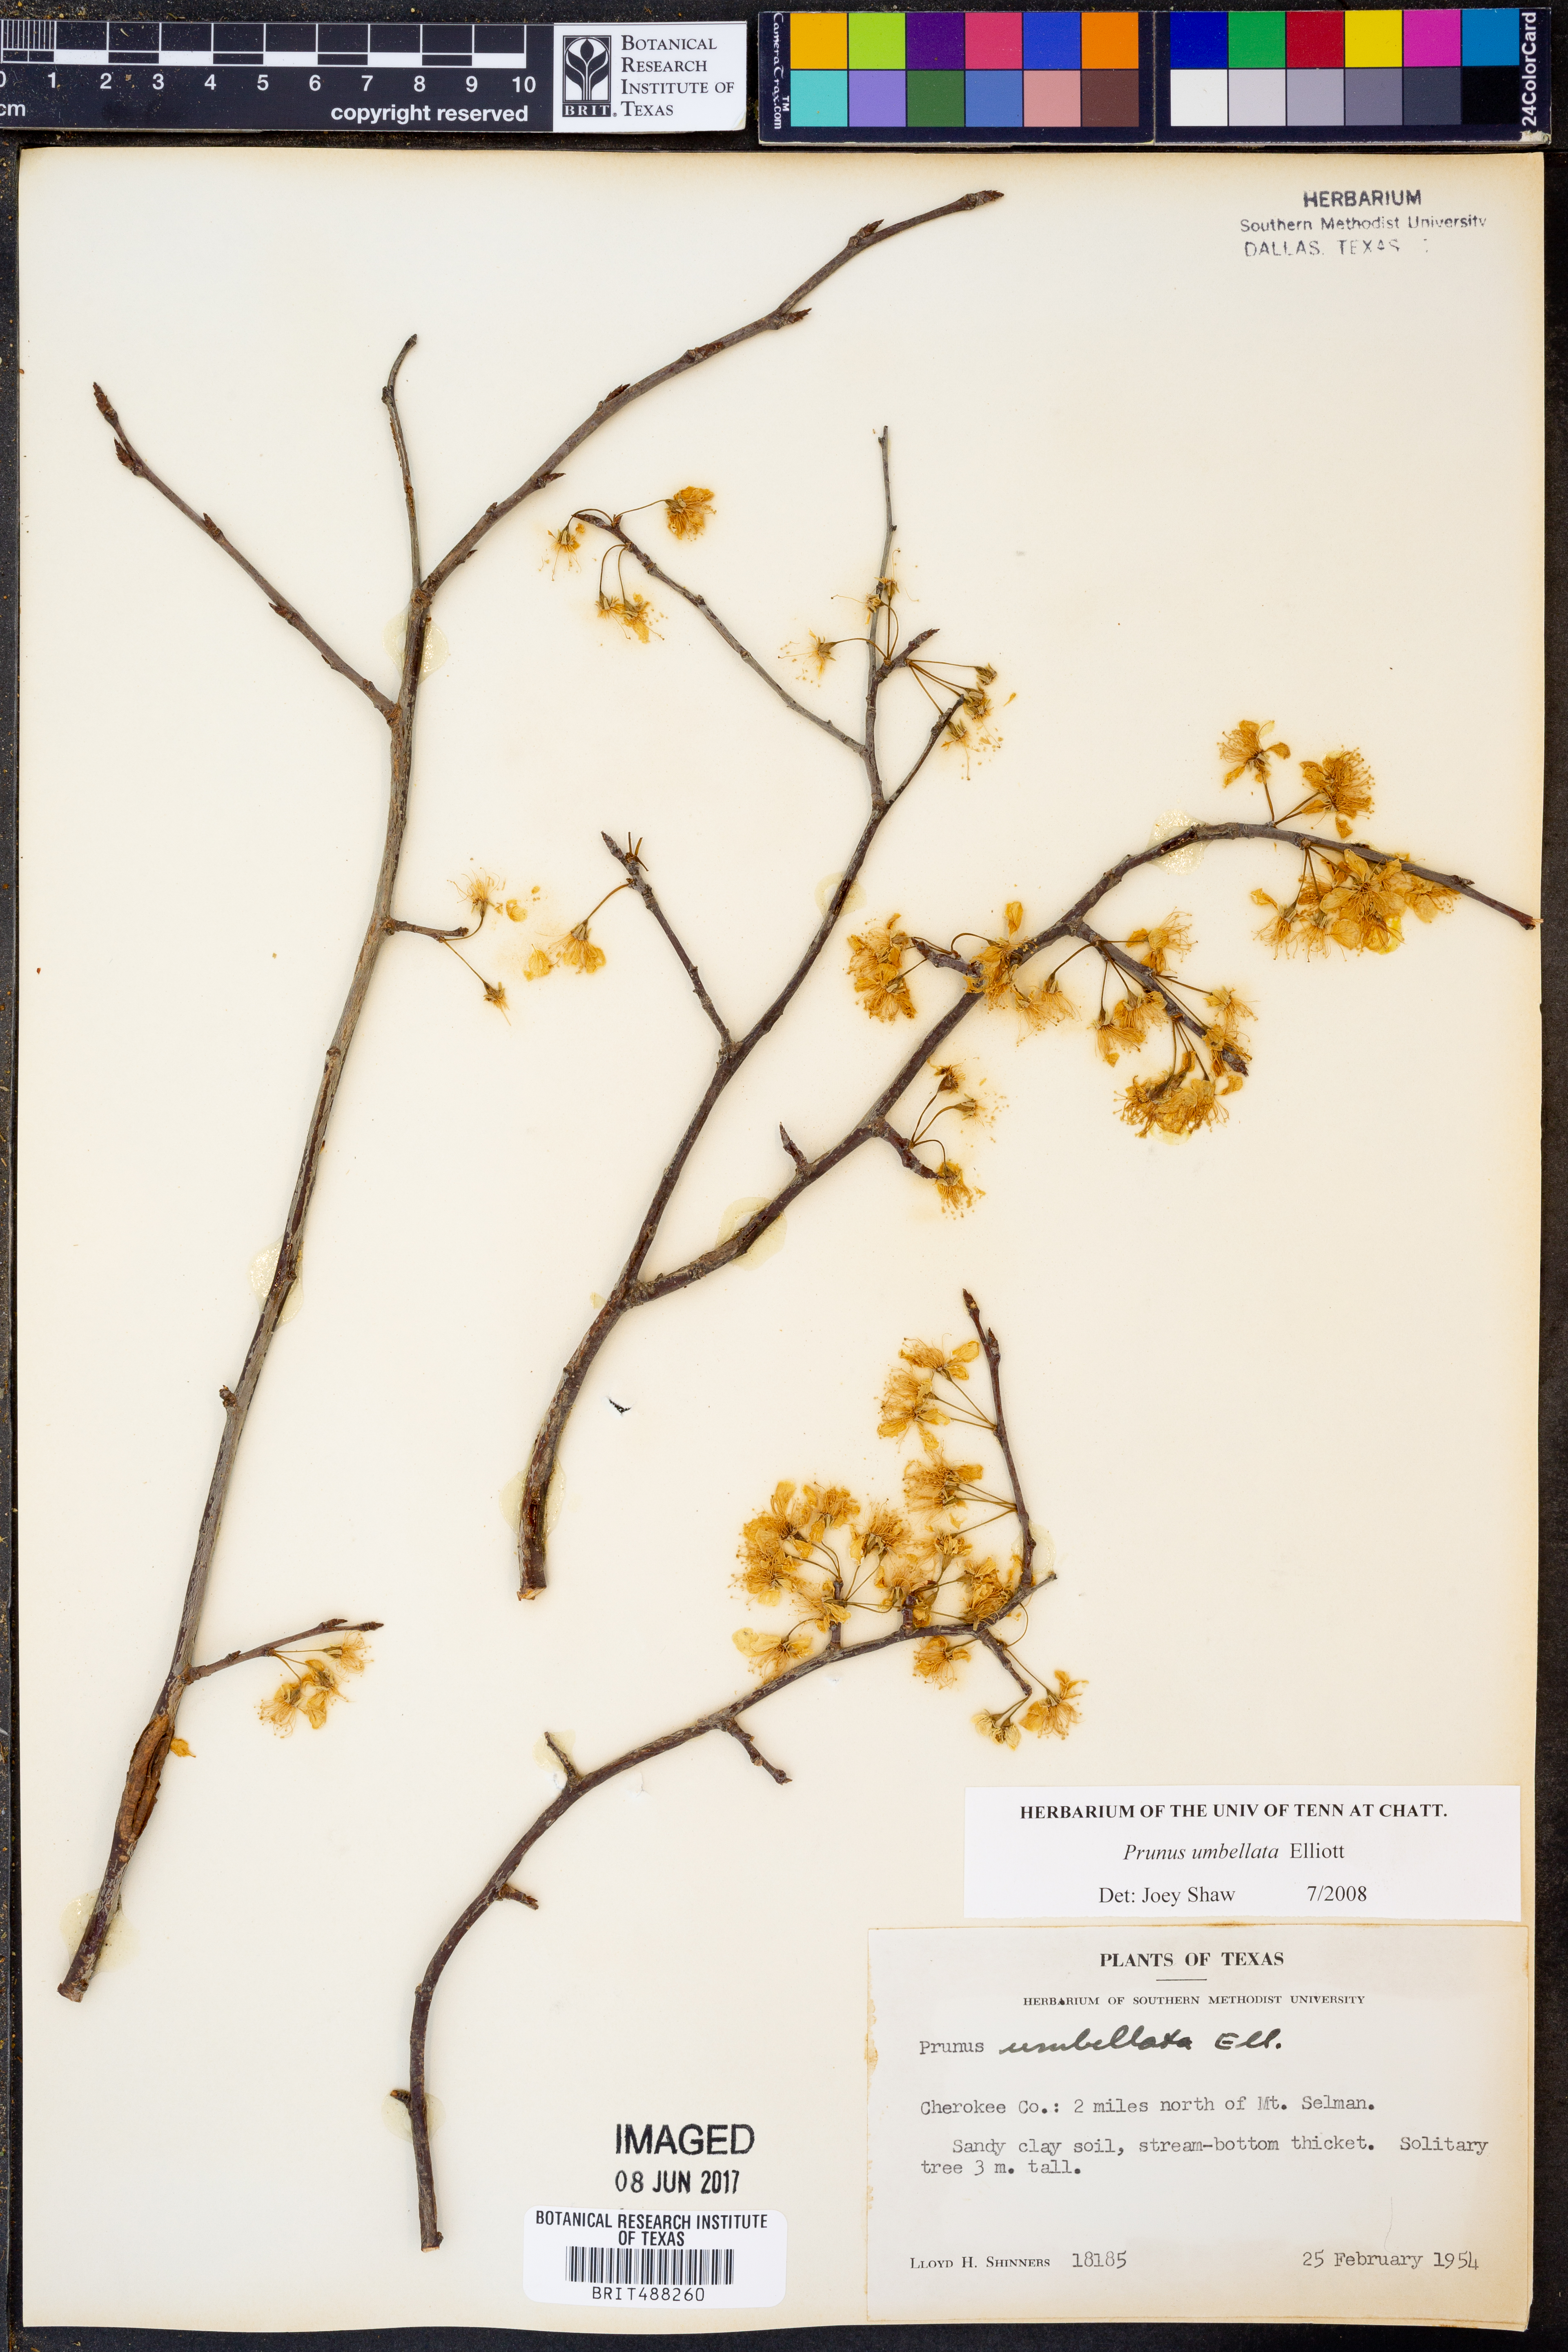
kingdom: Plantae
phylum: Tracheophyta
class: Magnoliopsida
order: Rosales
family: Rosaceae
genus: Prunus
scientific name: Prunus umbellata
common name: Allegheny plum
